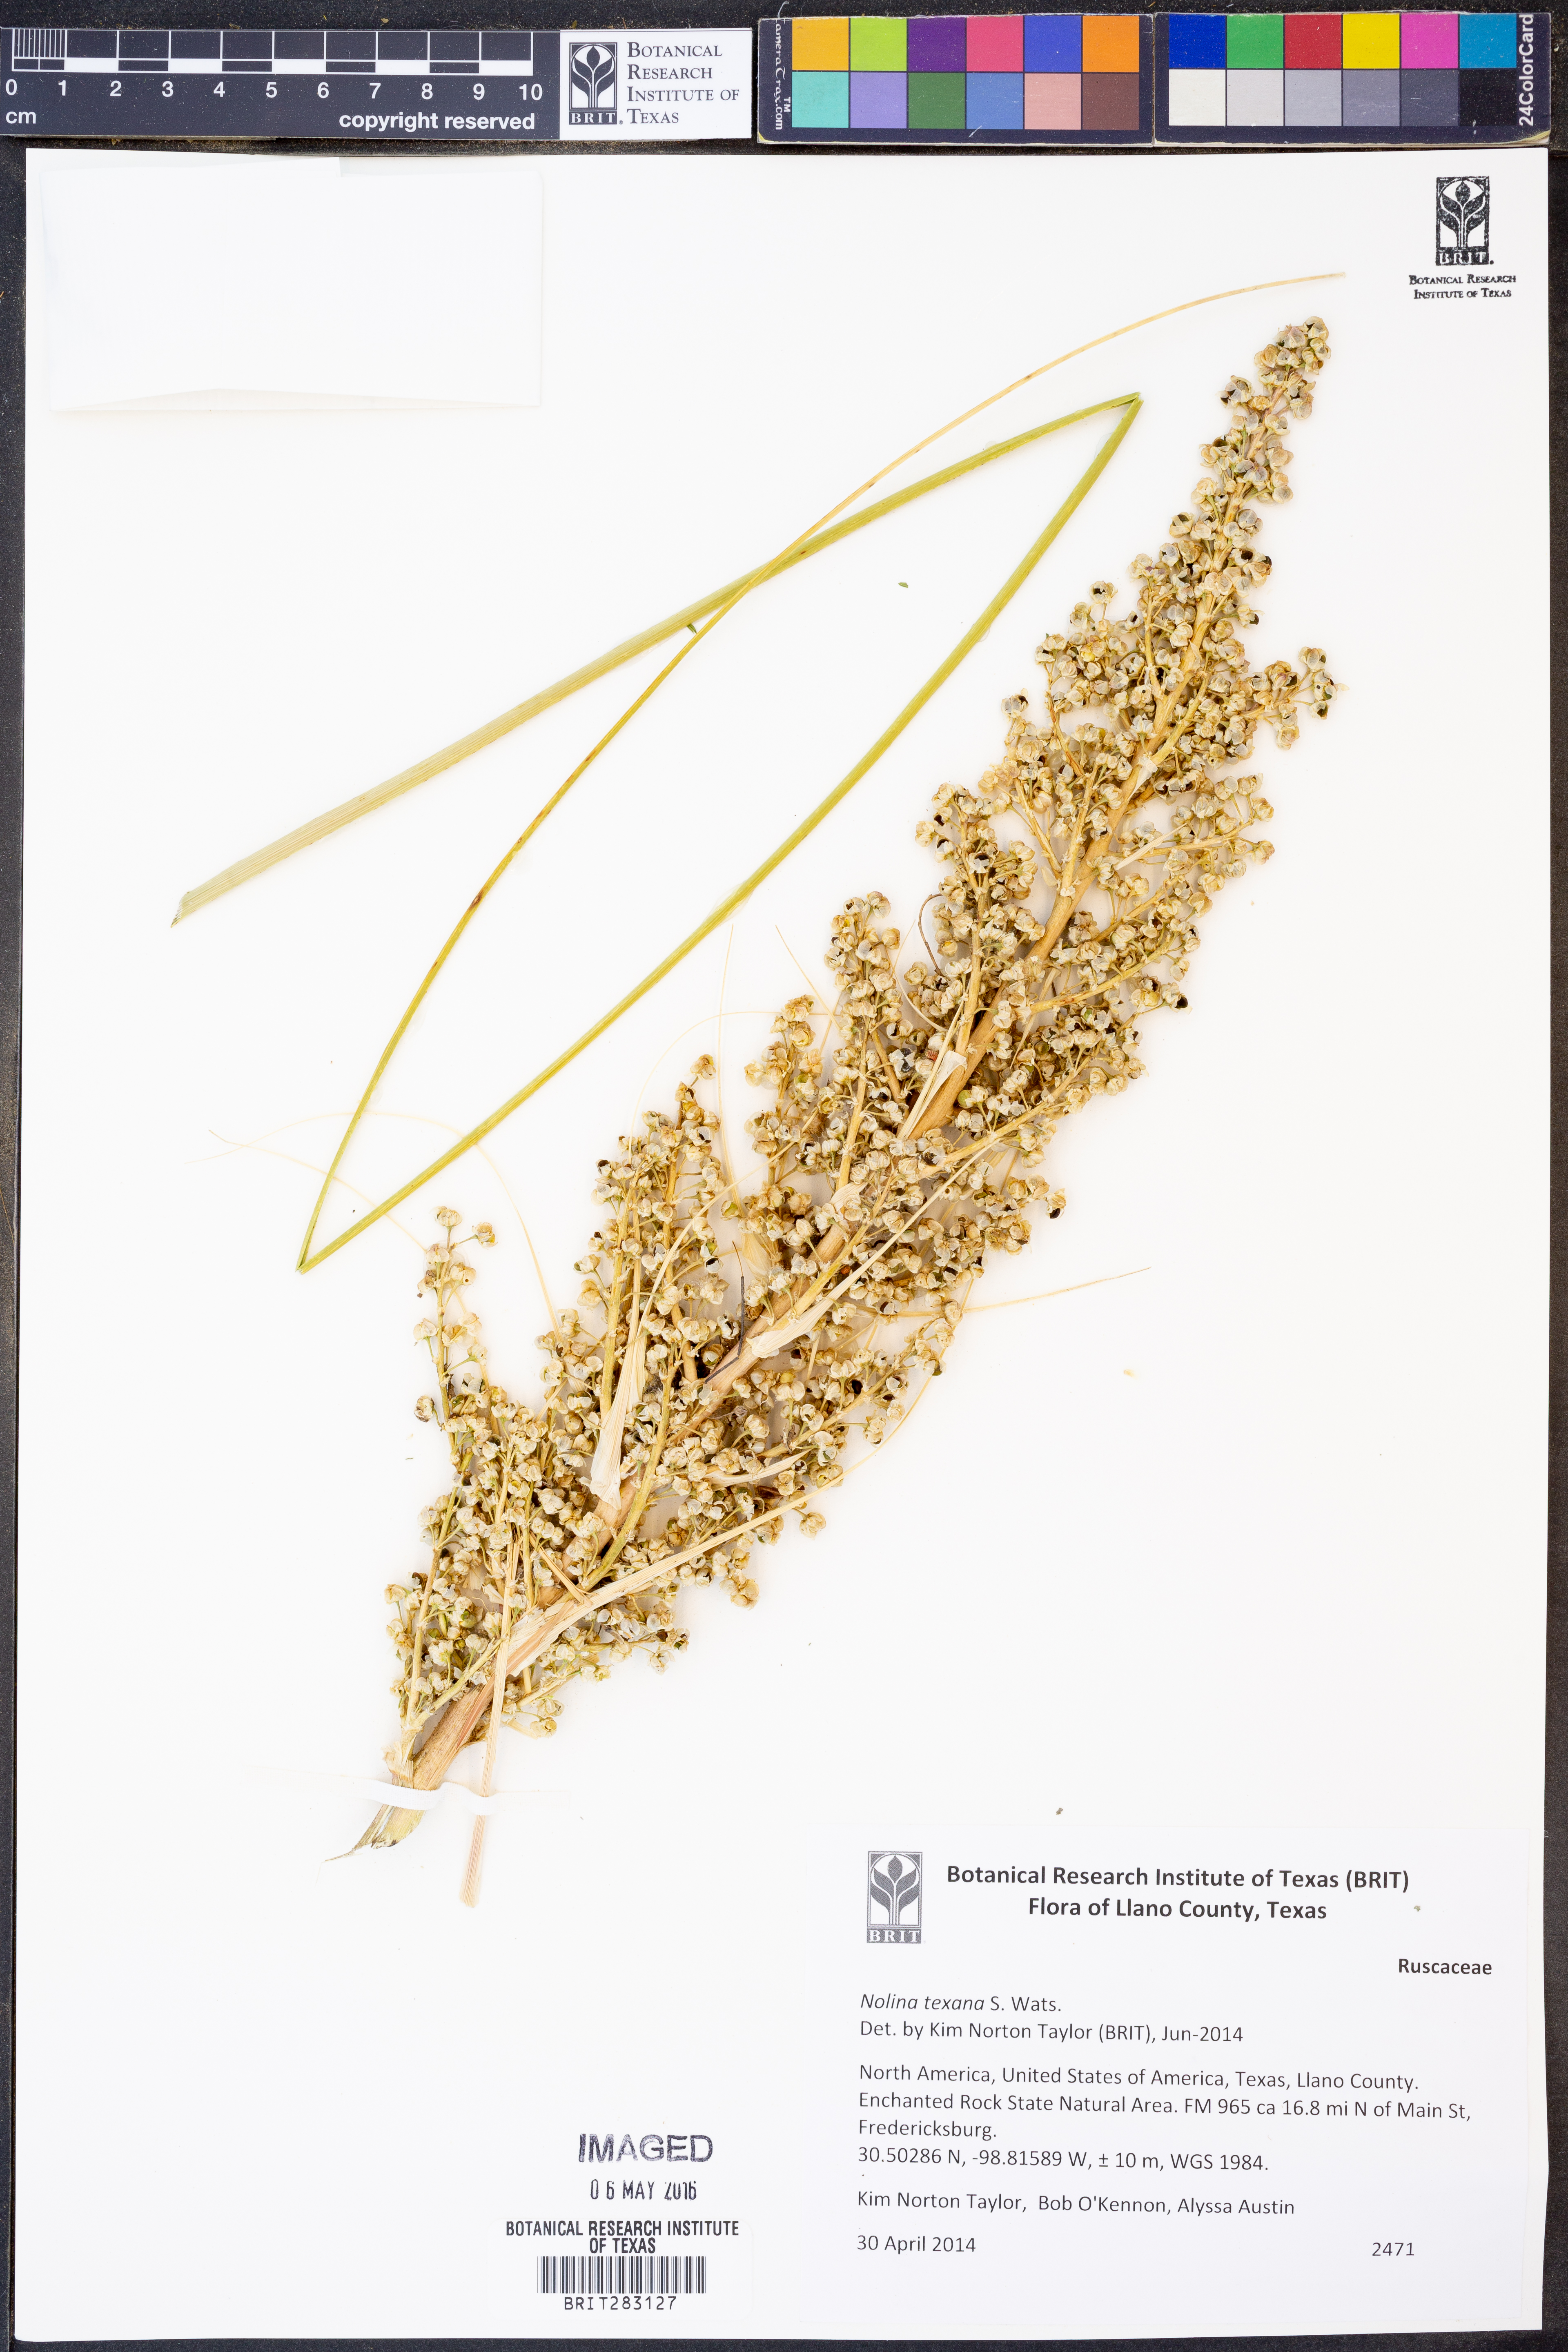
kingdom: Plantae
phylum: Tracheophyta
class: Liliopsida
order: Asparagales
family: Asparagaceae
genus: Nolina
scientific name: Nolina texana
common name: Texas sacahuiste
